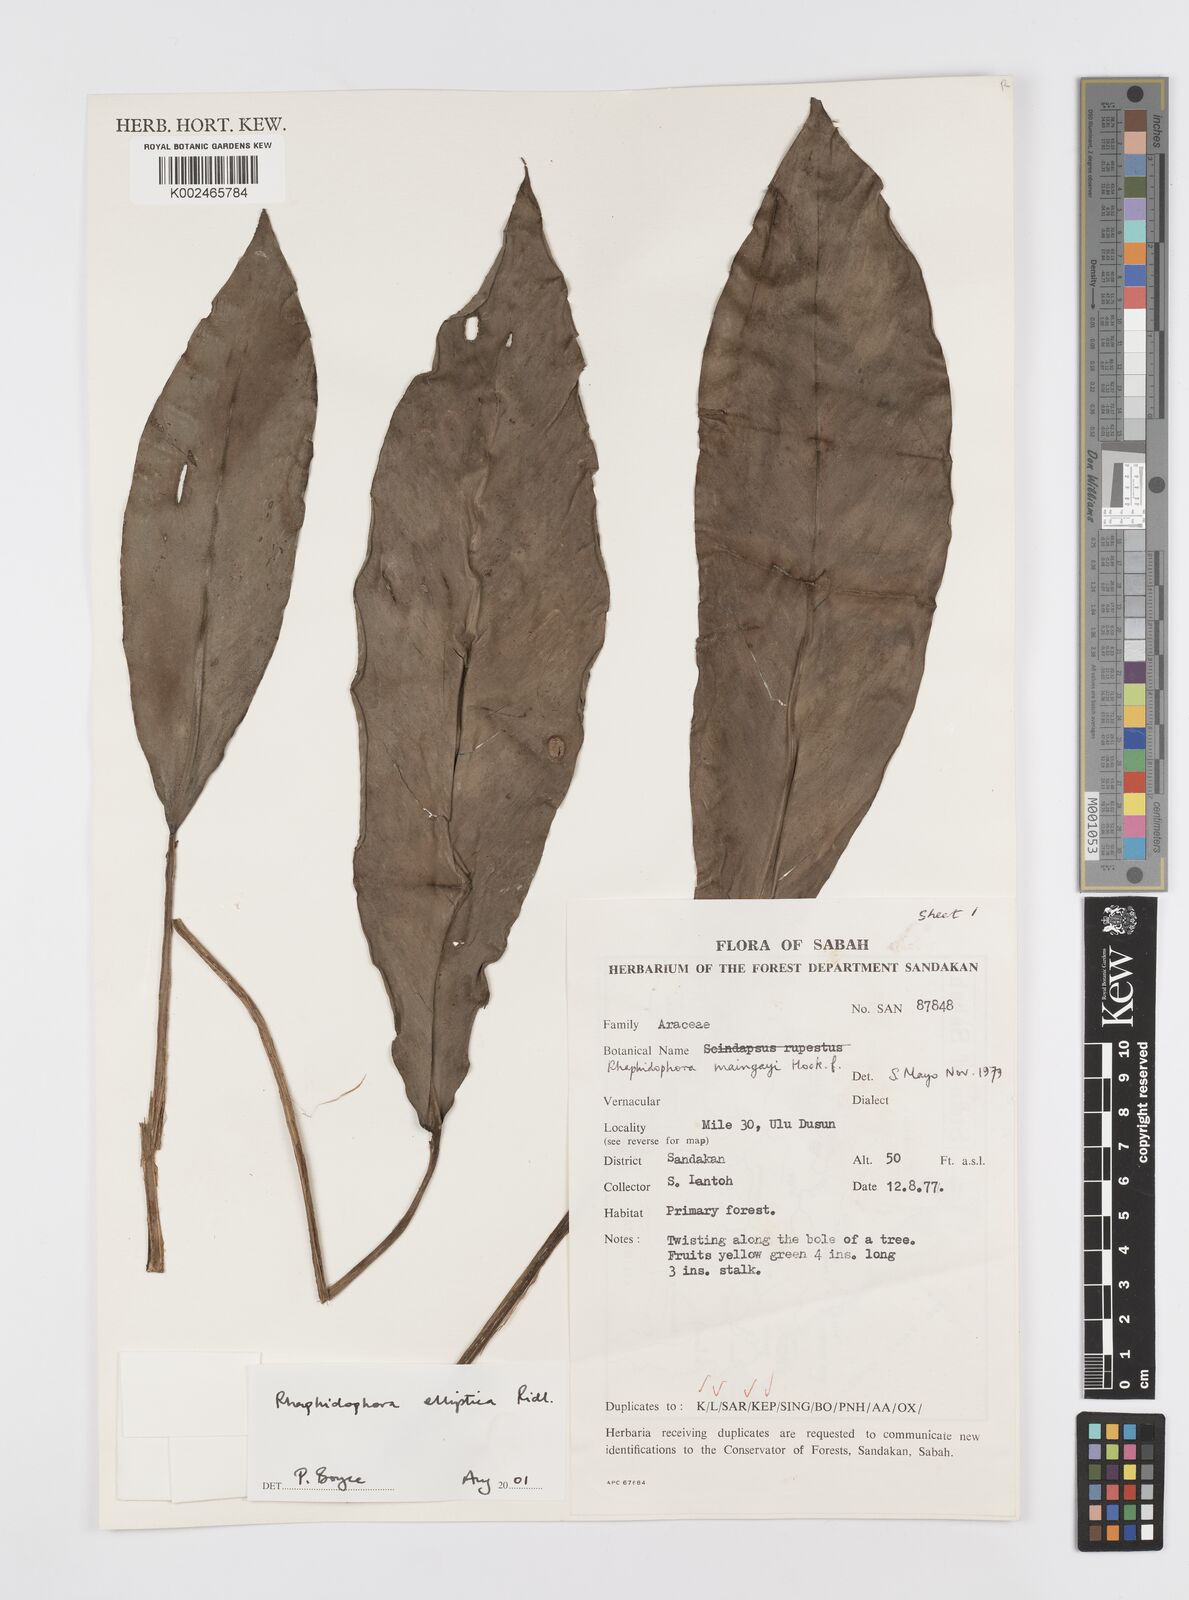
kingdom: Plantae
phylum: Tracheophyta
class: Liliopsida
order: Alismatales
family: Araceae
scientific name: Araceae
